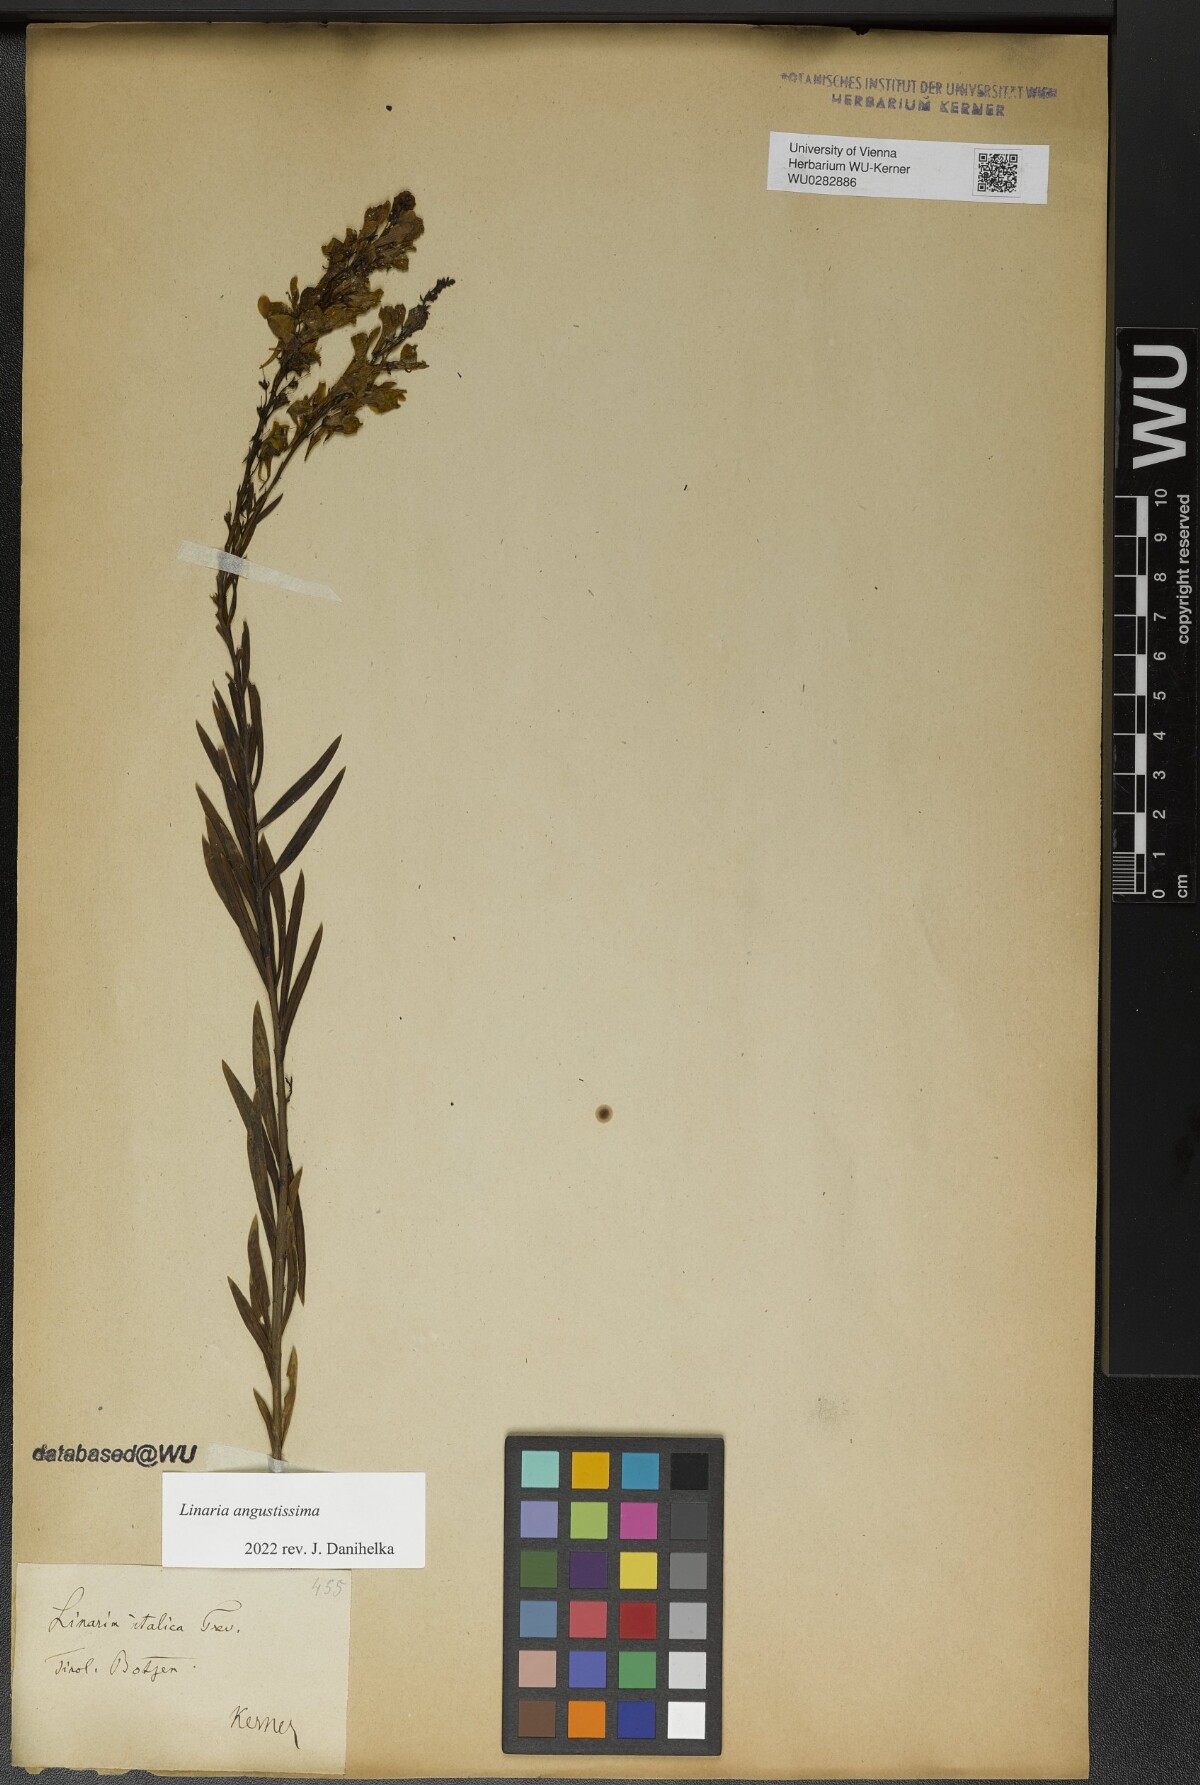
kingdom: Plantae
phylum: Tracheophyta
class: Magnoliopsida
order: Lamiales
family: Plantaginaceae
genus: Linaria
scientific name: Linaria angustissima
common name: Italian toadflax
